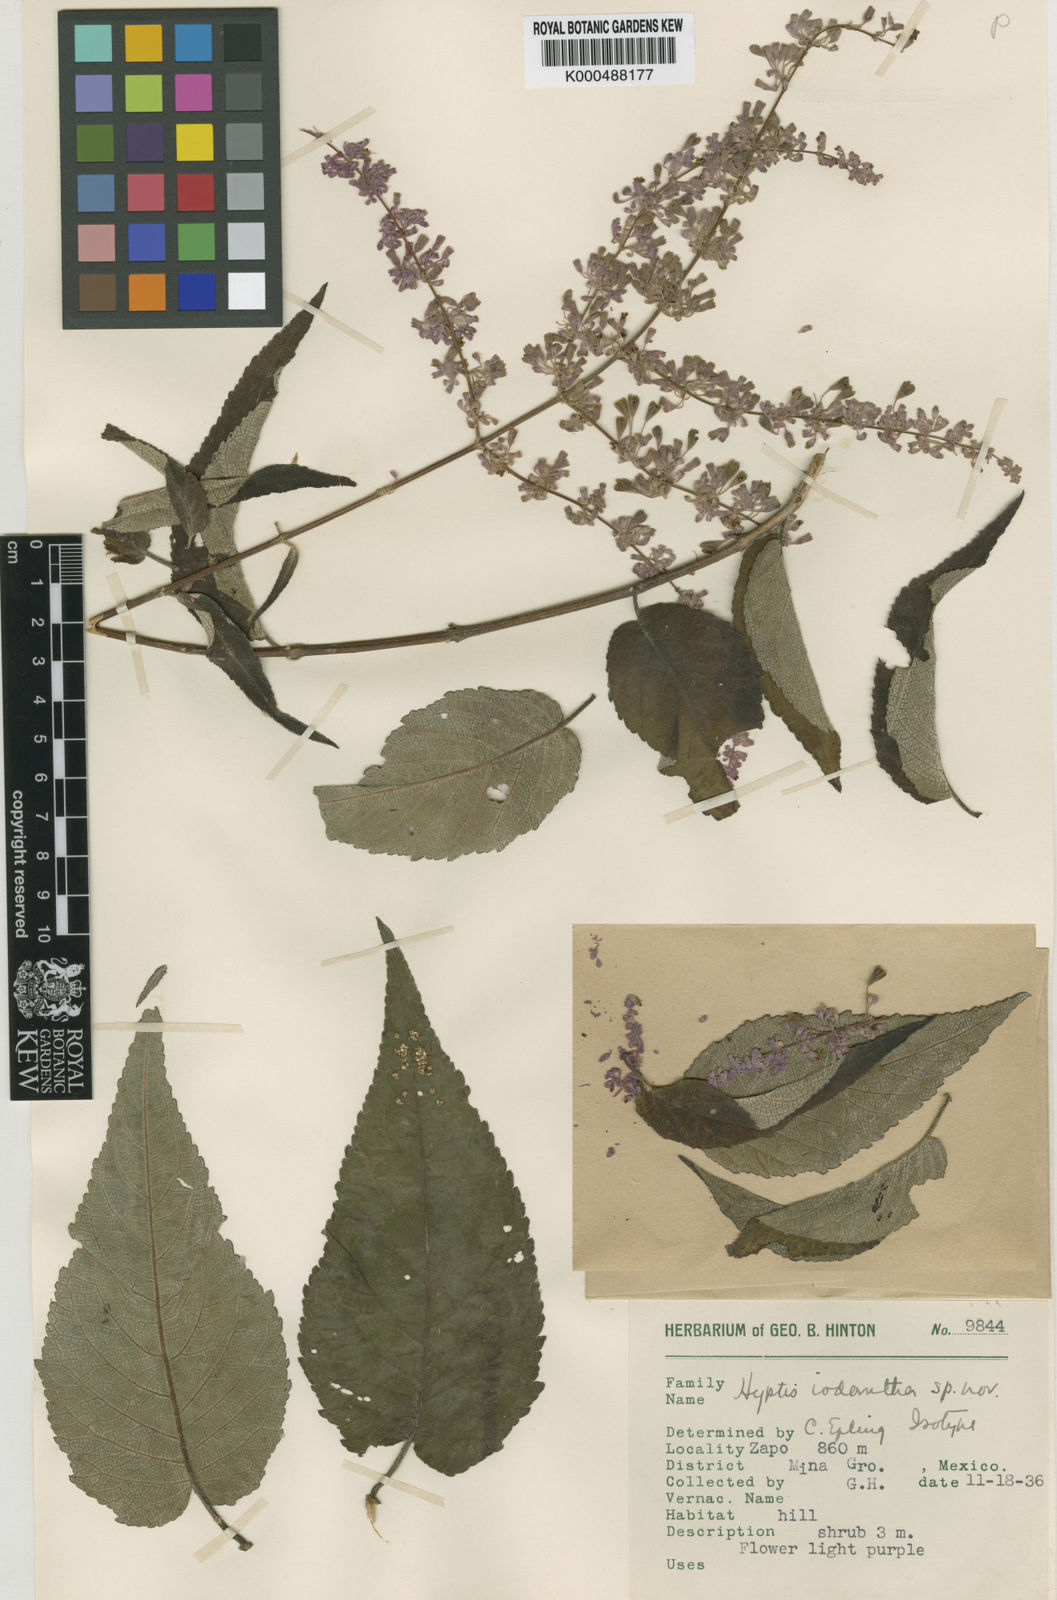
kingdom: Plantae
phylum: Tracheophyta
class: Magnoliopsida
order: Lamiales
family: Lamiaceae
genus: Condea
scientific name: Condea iodantha
